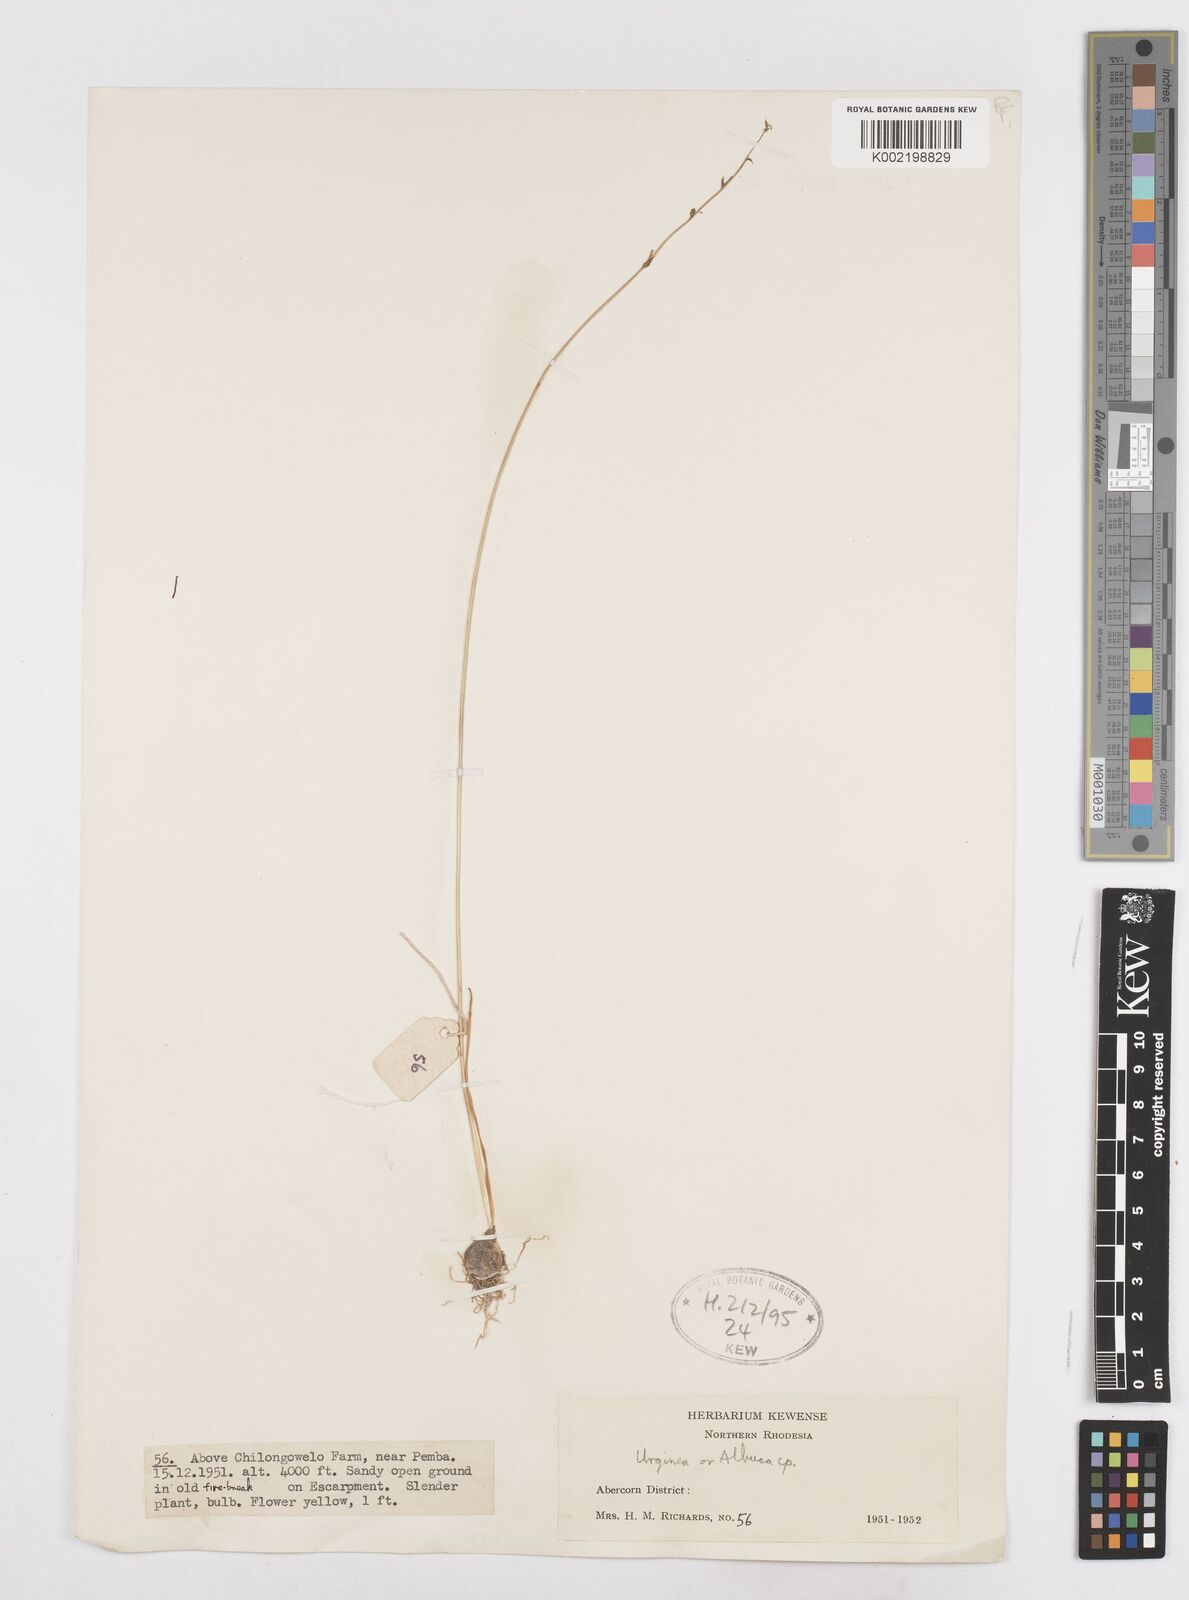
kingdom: Plantae
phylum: Tracheophyta
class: Liliopsida
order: Asparagales
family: Asparagaceae
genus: Drimia
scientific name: Drimia
